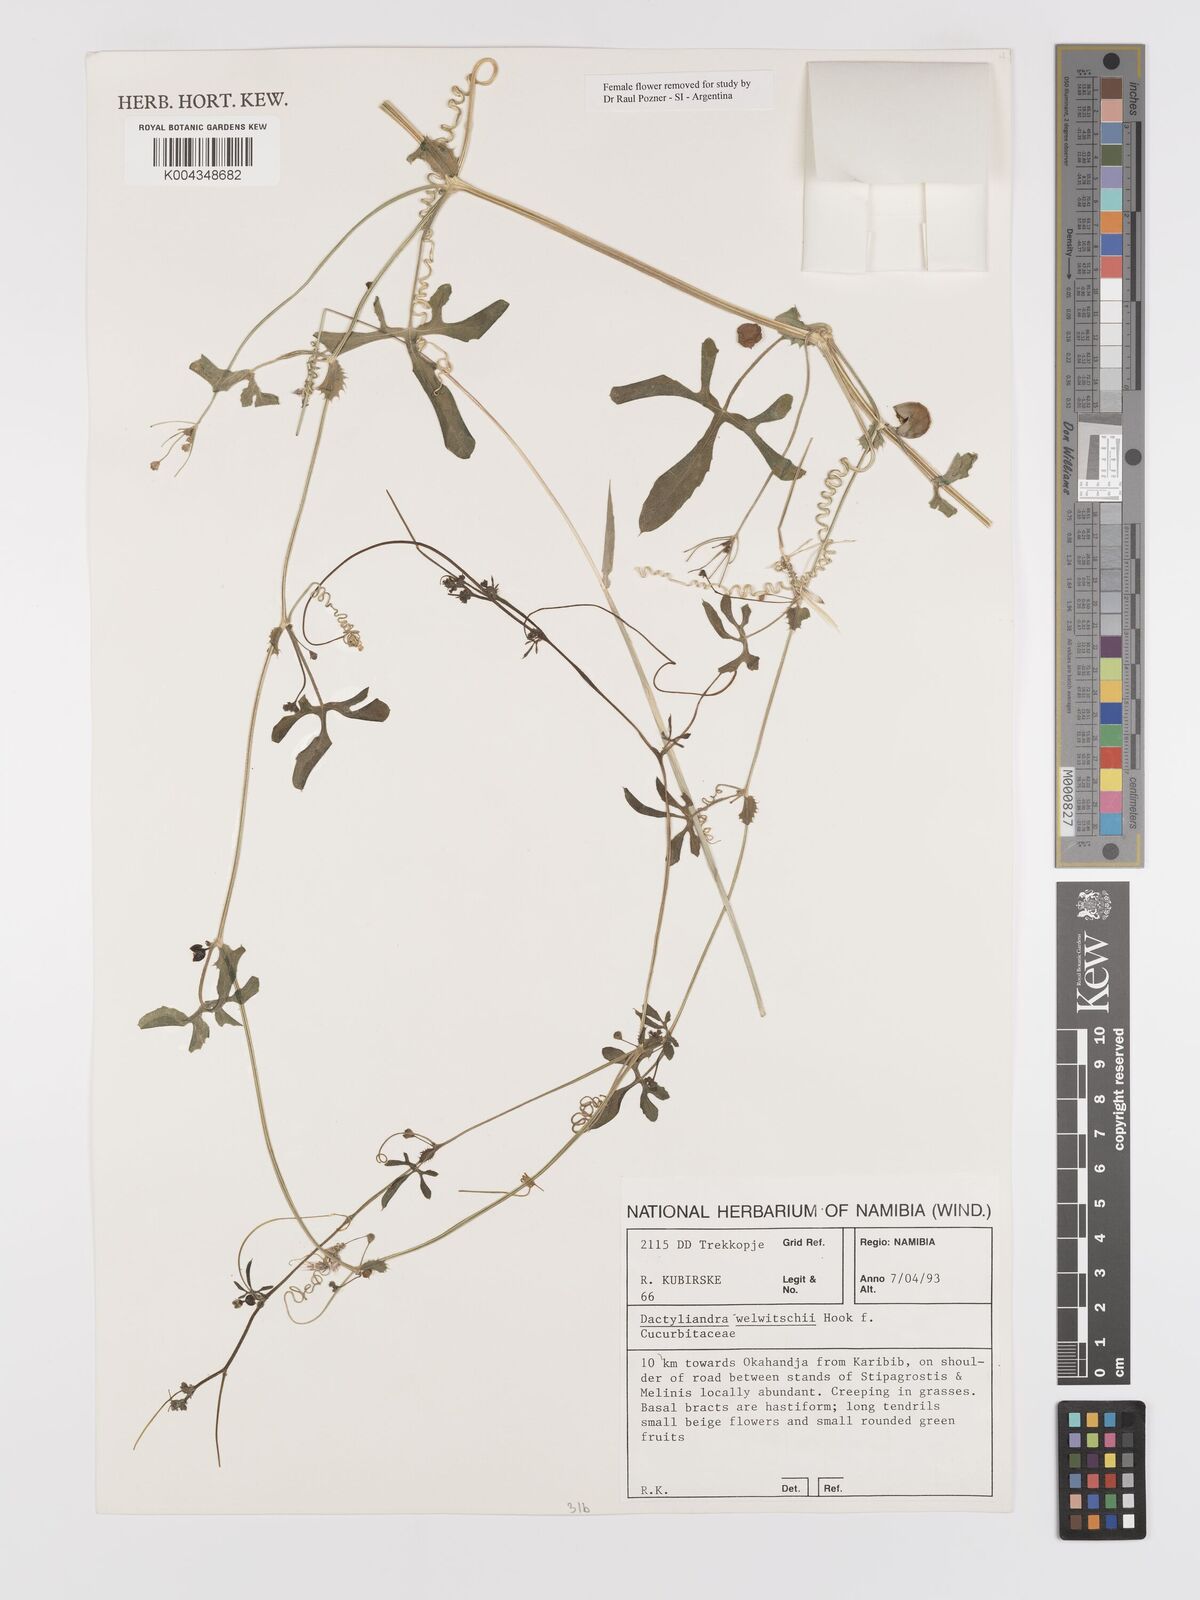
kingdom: Plantae
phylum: Tracheophyta
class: Magnoliopsida
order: Cucurbitales
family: Cucurbitaceae
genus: Dactyliandra
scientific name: Dactyliandra welwitschii
